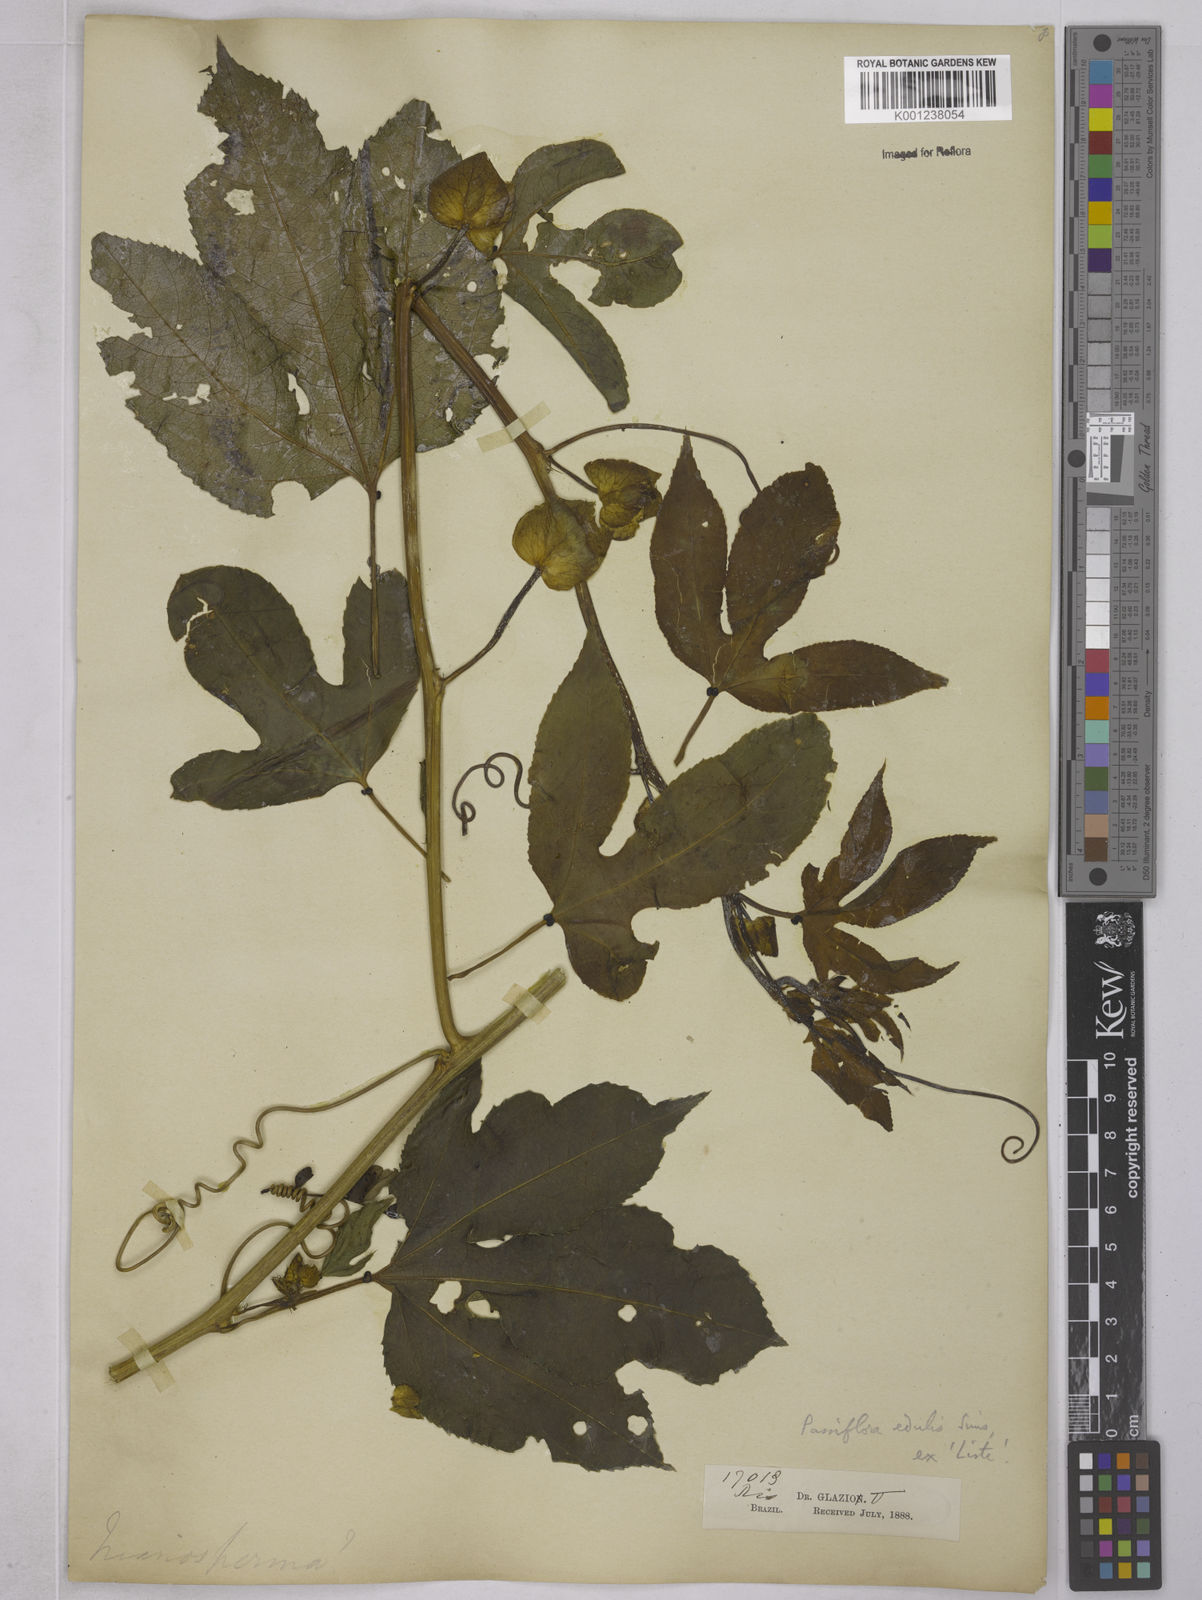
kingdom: Plantae
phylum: Tracheophyta
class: Magnoliopsida
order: Malpighiales
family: Passifloraceae
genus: Passiflora
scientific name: Passiflora edulis
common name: Purple granadilla
